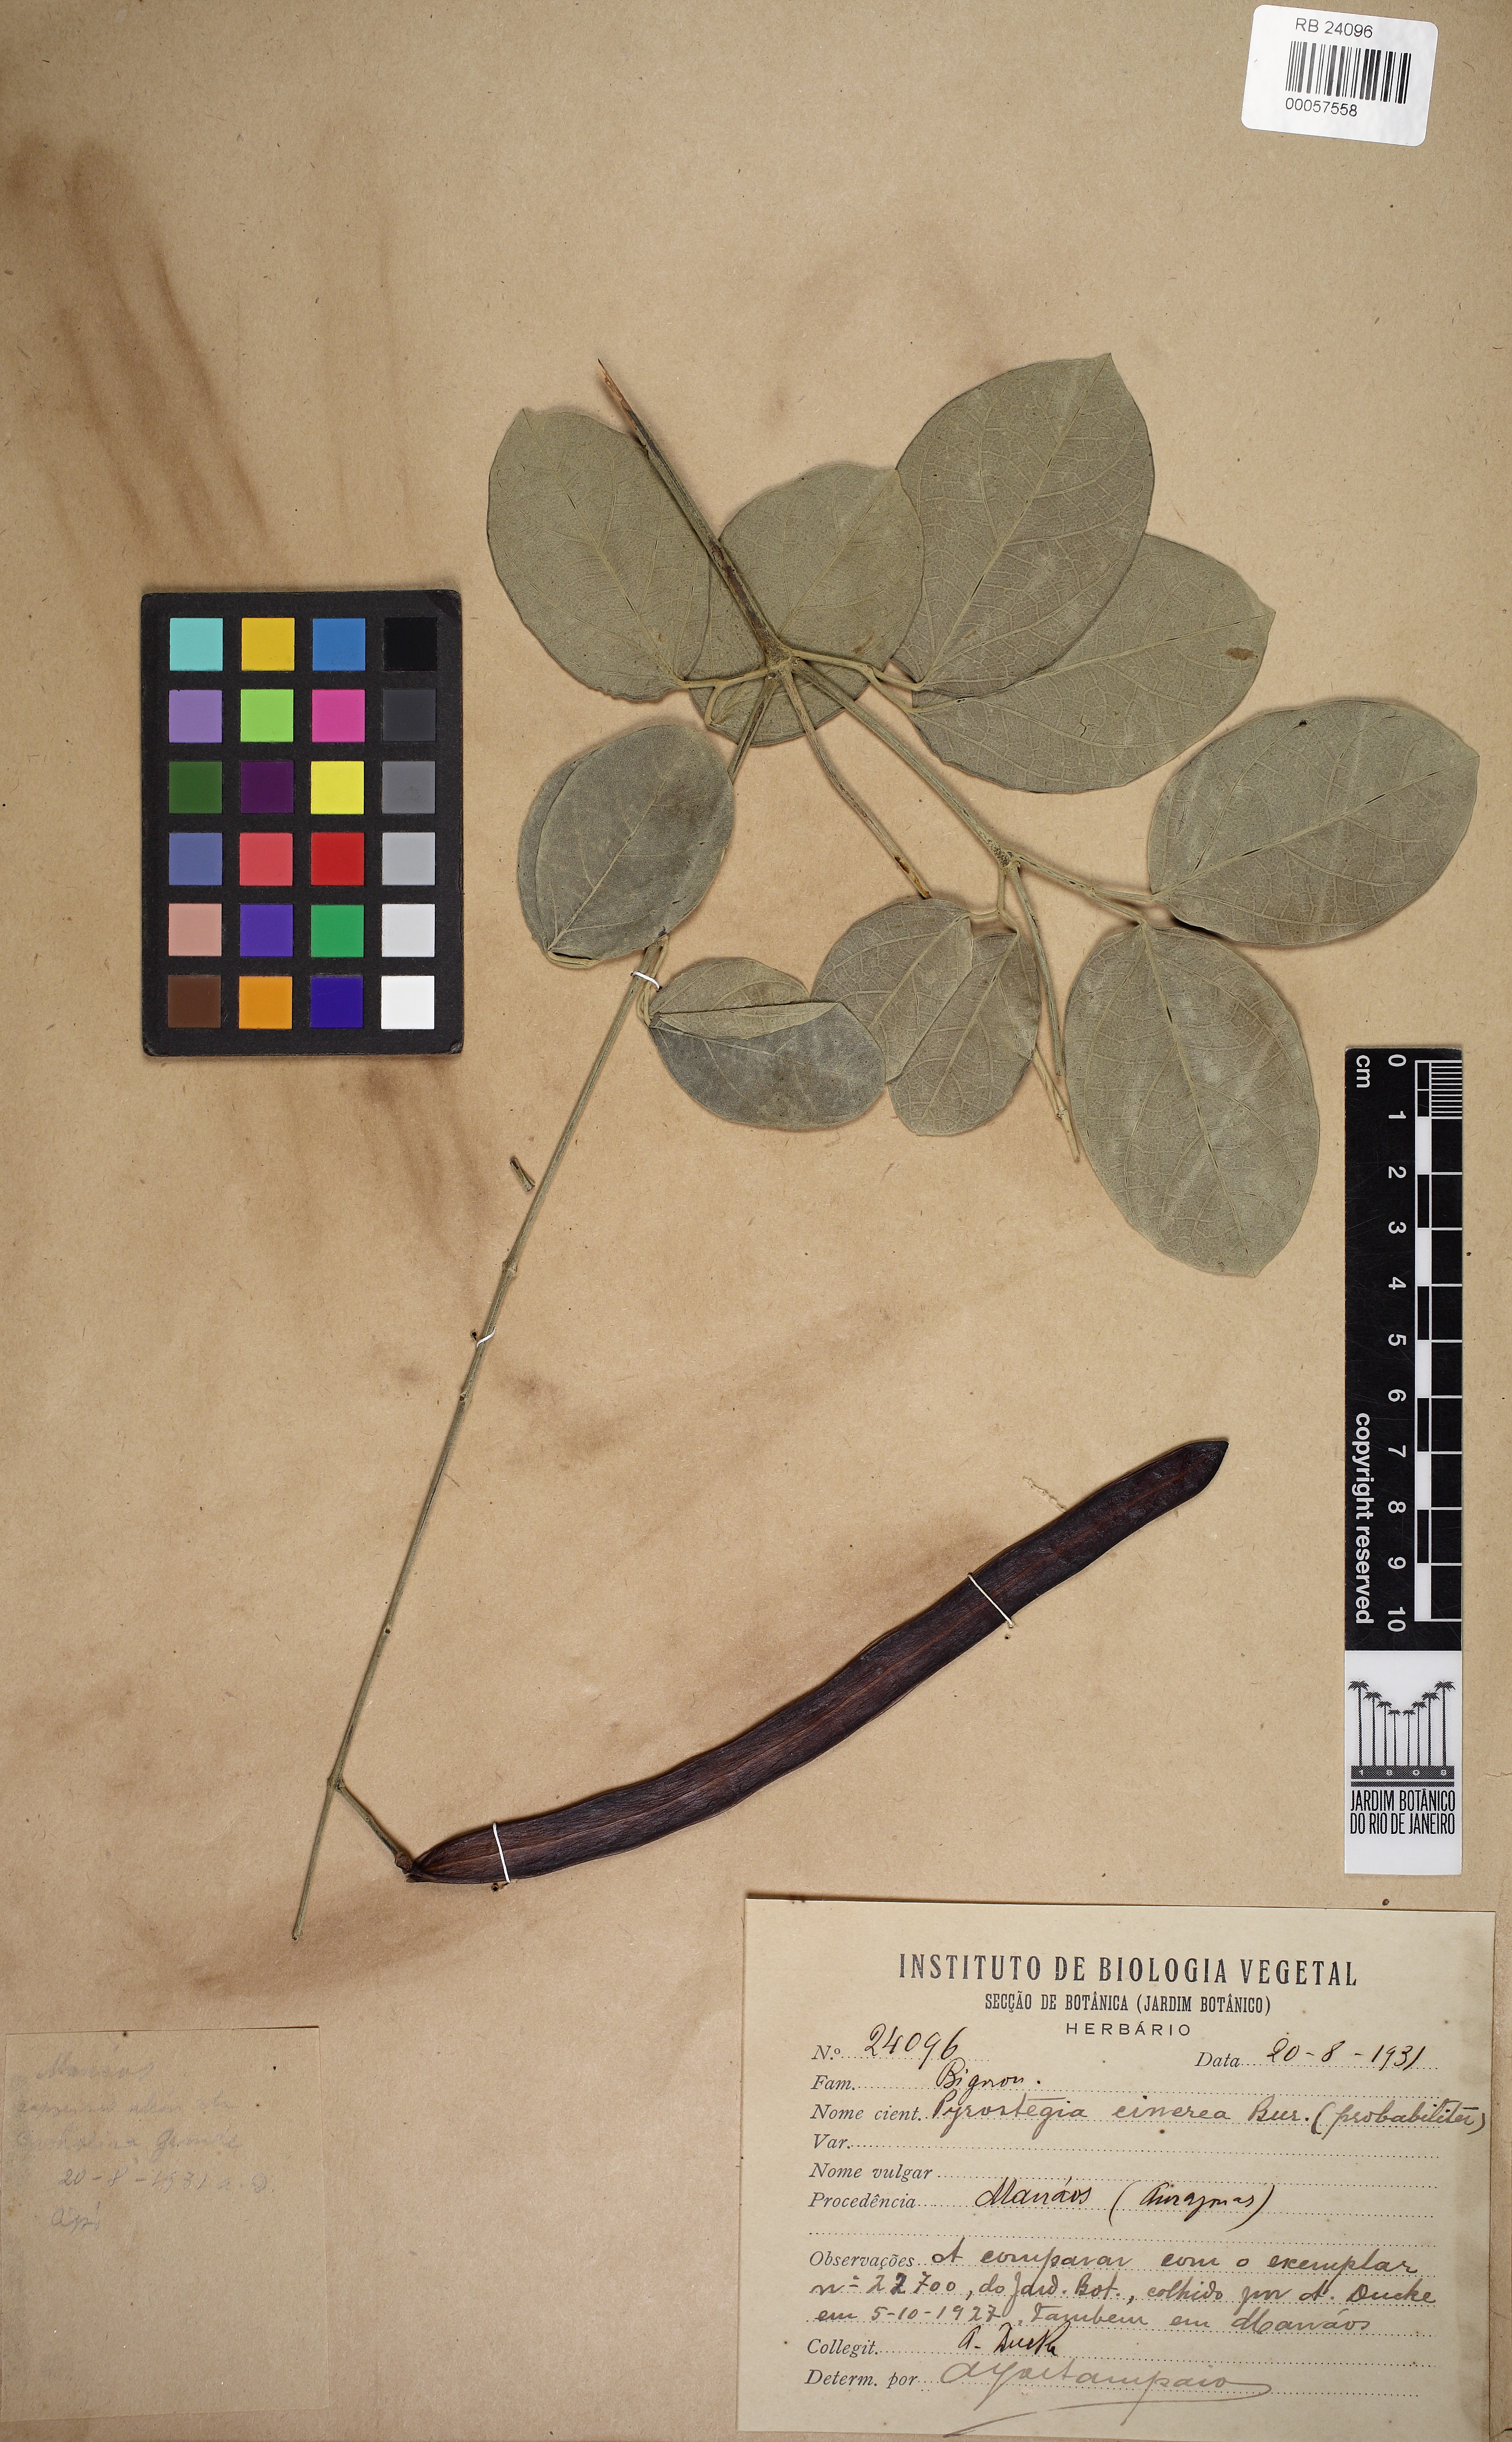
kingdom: Plantae
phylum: Tracheophyta
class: Magnoliopsida
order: Lamiales
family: Bignoniaceae
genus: Cuspidaria
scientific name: Cuspidaria cinerea
